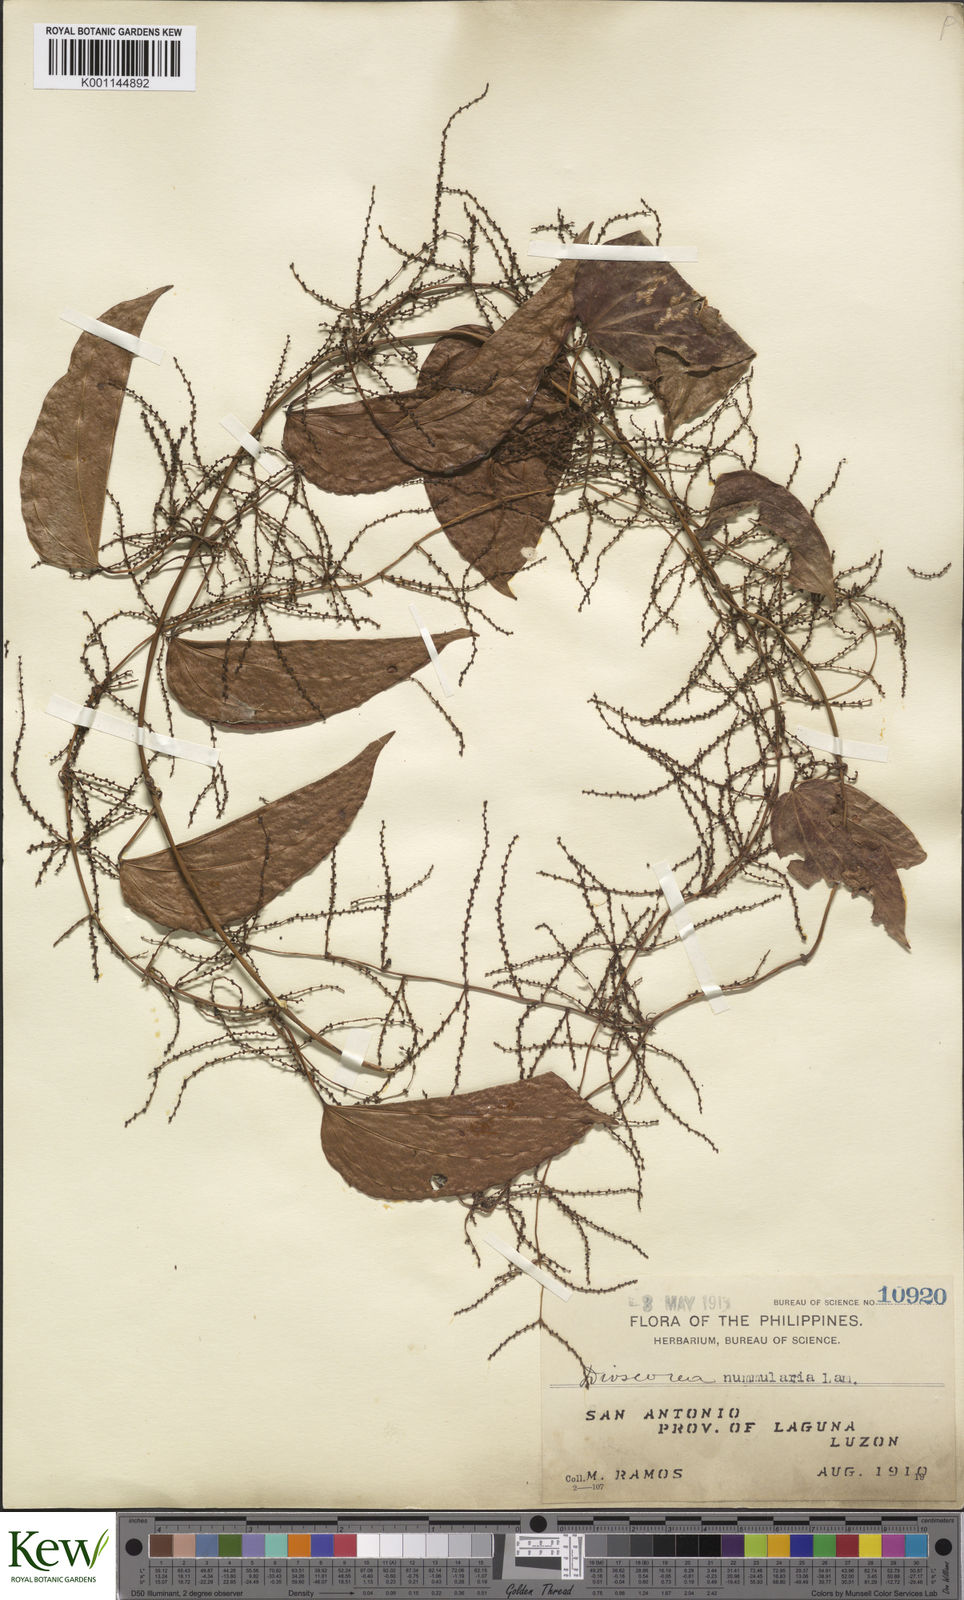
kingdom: Plantae
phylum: Tracheophyta
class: Liliopsida
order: Dioscoreales
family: Dioscoreaceae
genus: Dioscorea
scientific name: Dioscorea nummularia
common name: Pacific yam
